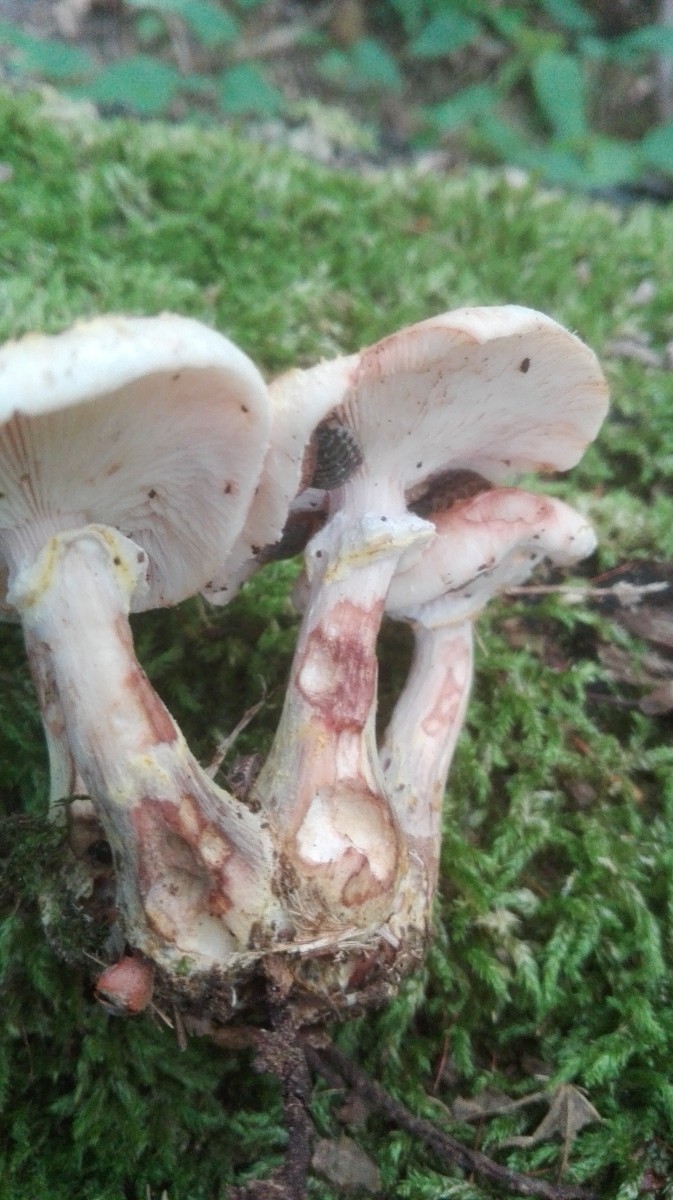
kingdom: Fungi
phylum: Basidiomycota
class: Agaricomycetes
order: Agaricales
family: Physalacriaceae
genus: Armillaria
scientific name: Armillaria lutea
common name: køllestokket honningsvamp
